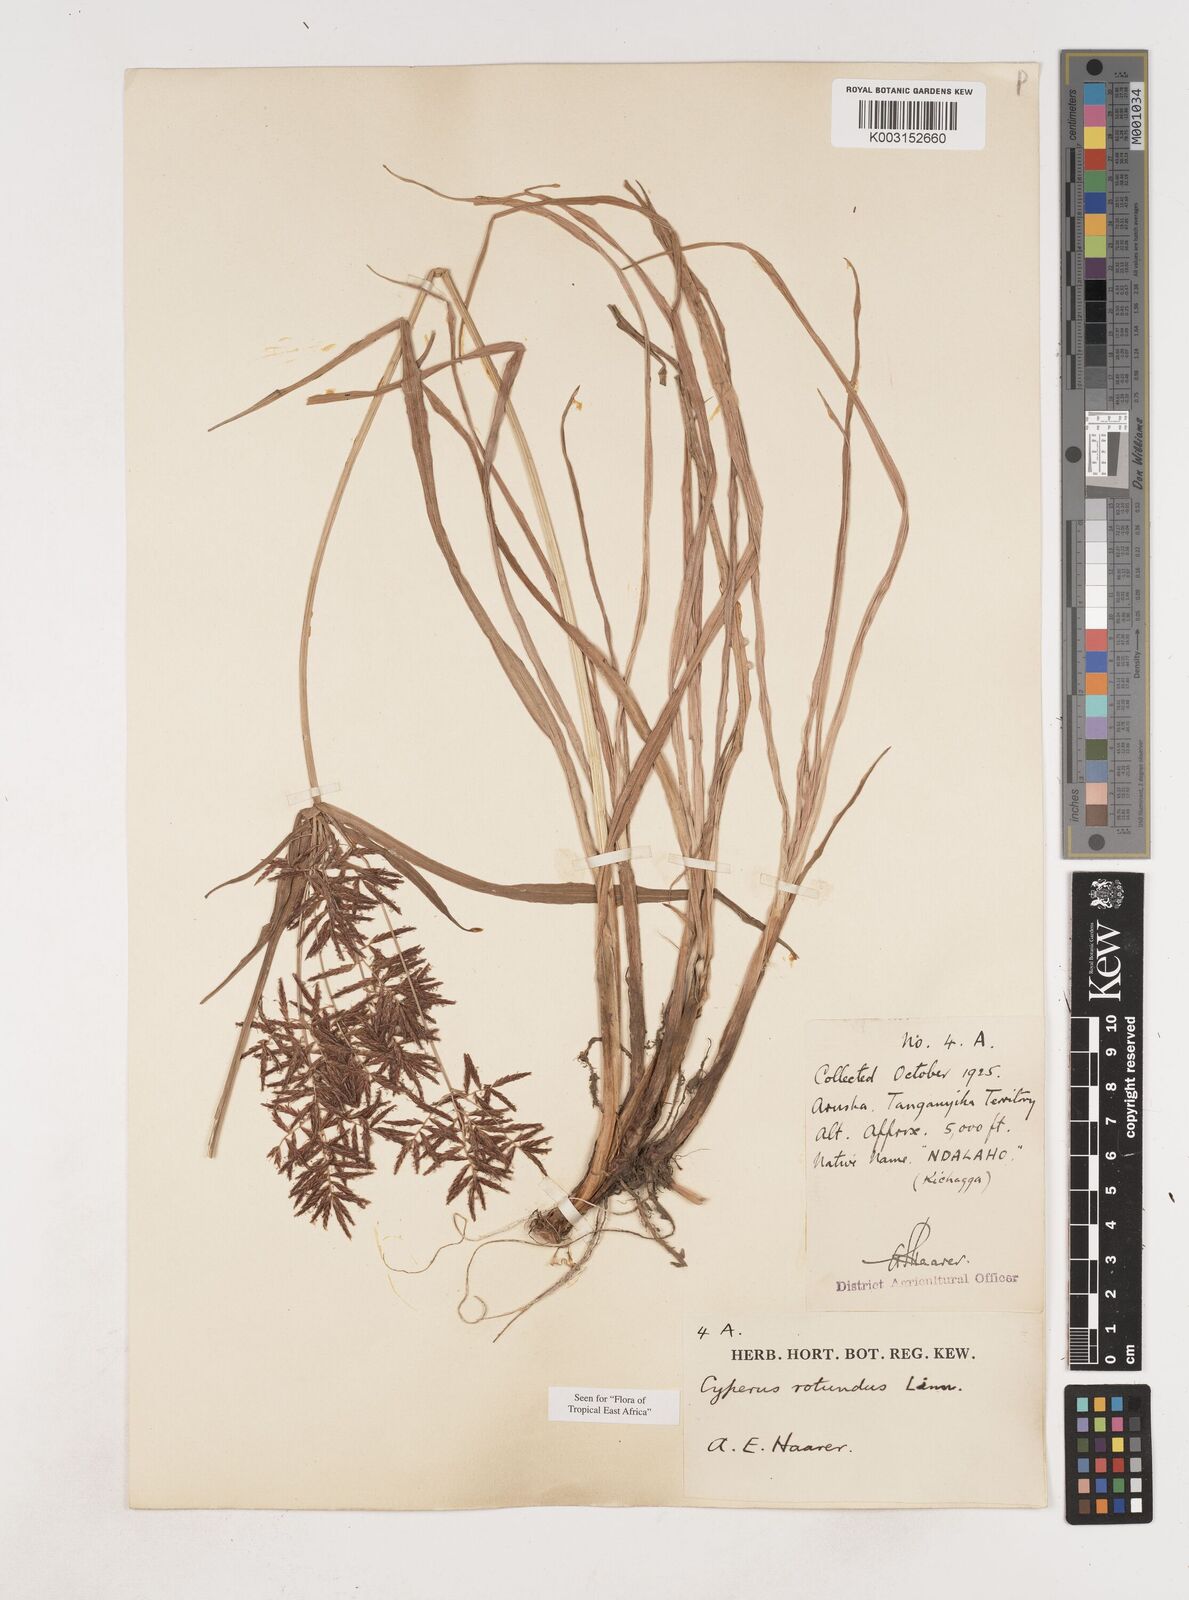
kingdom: Plantae
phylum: Tracheophyta
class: Liliopsida
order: Poales
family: Cyperaceae
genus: Cyperus
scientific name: Cyperus rotundus
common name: Nutgrass
